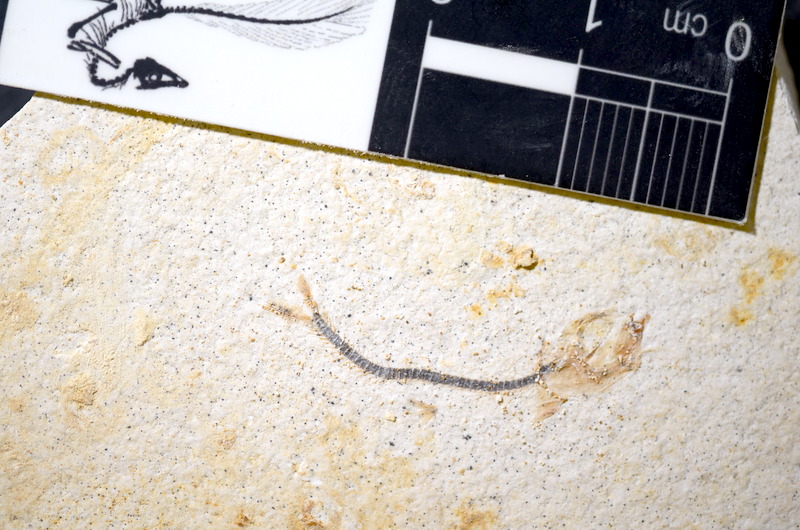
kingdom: Animalia
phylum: Chordata
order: Salmoniformes
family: Orthogonikleithridae
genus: Orthogonikleithrus
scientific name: Orthogonikleithrus hoelli
